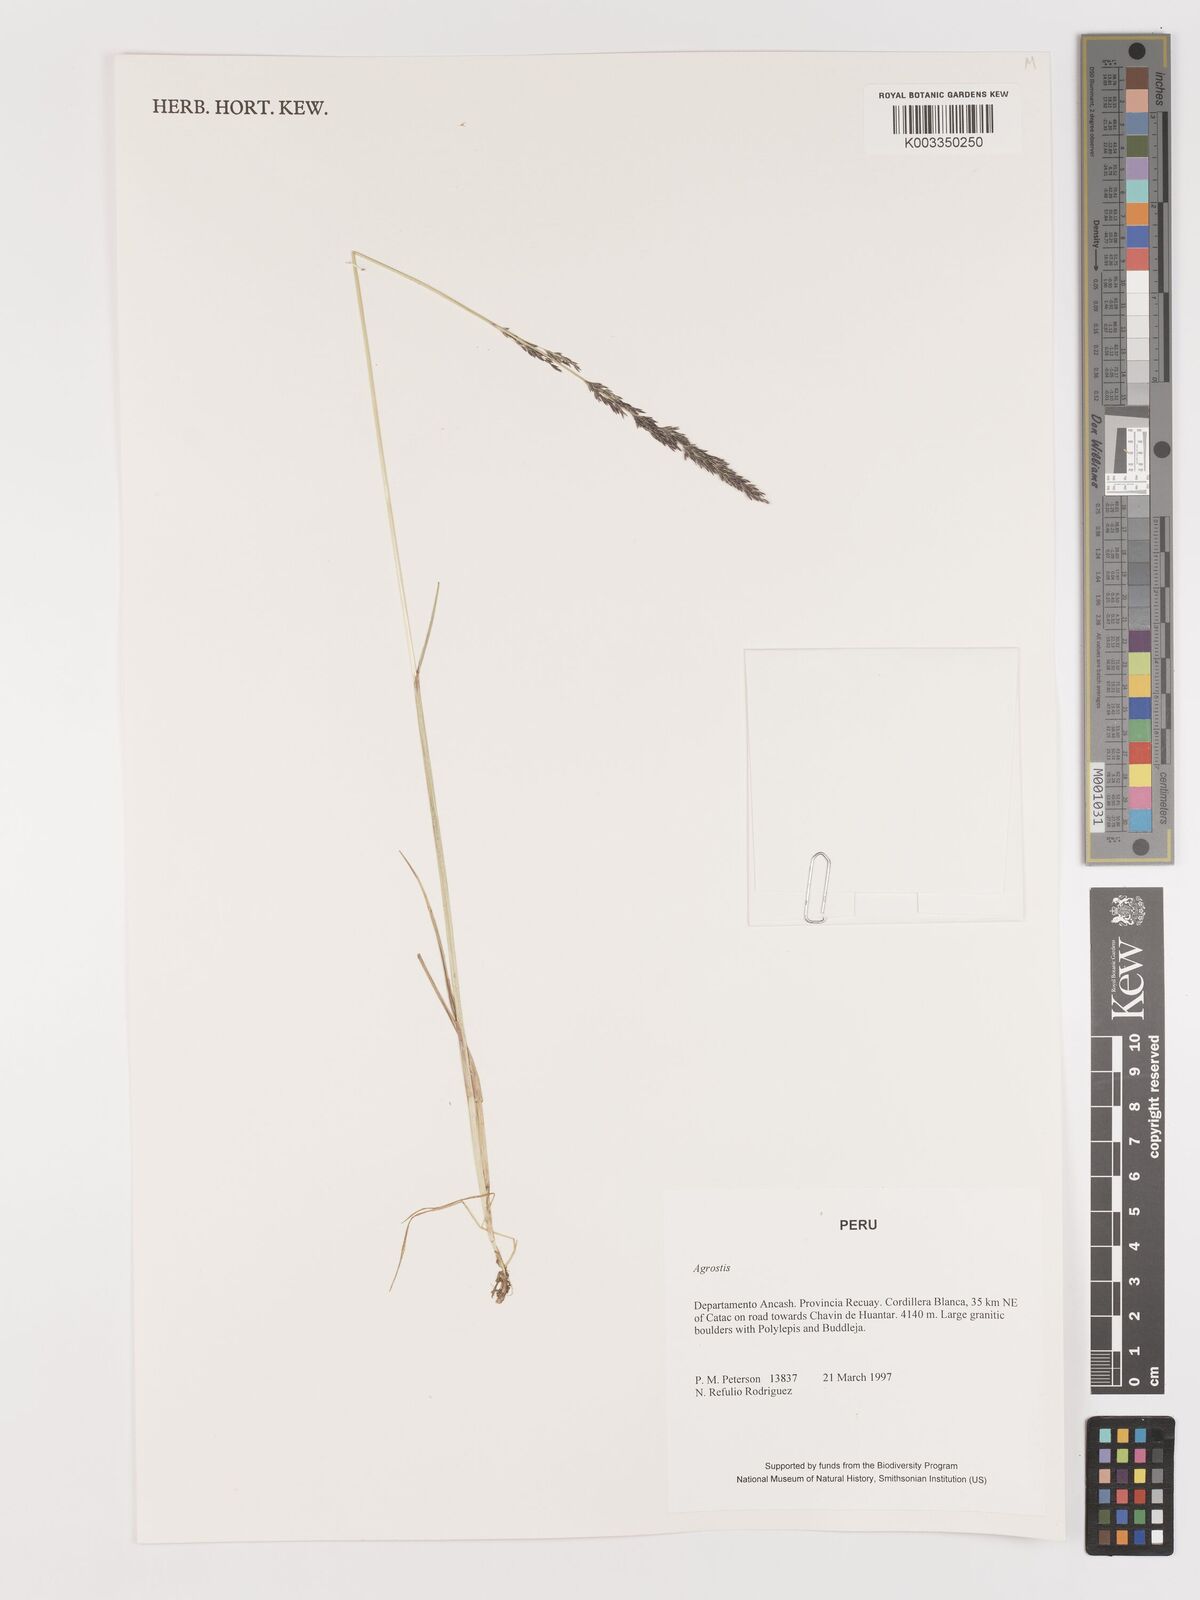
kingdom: Plantae
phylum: Tracheophyta
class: Liliopsida
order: Poales
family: Poaceae
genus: Agrostis
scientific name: Agrostis
